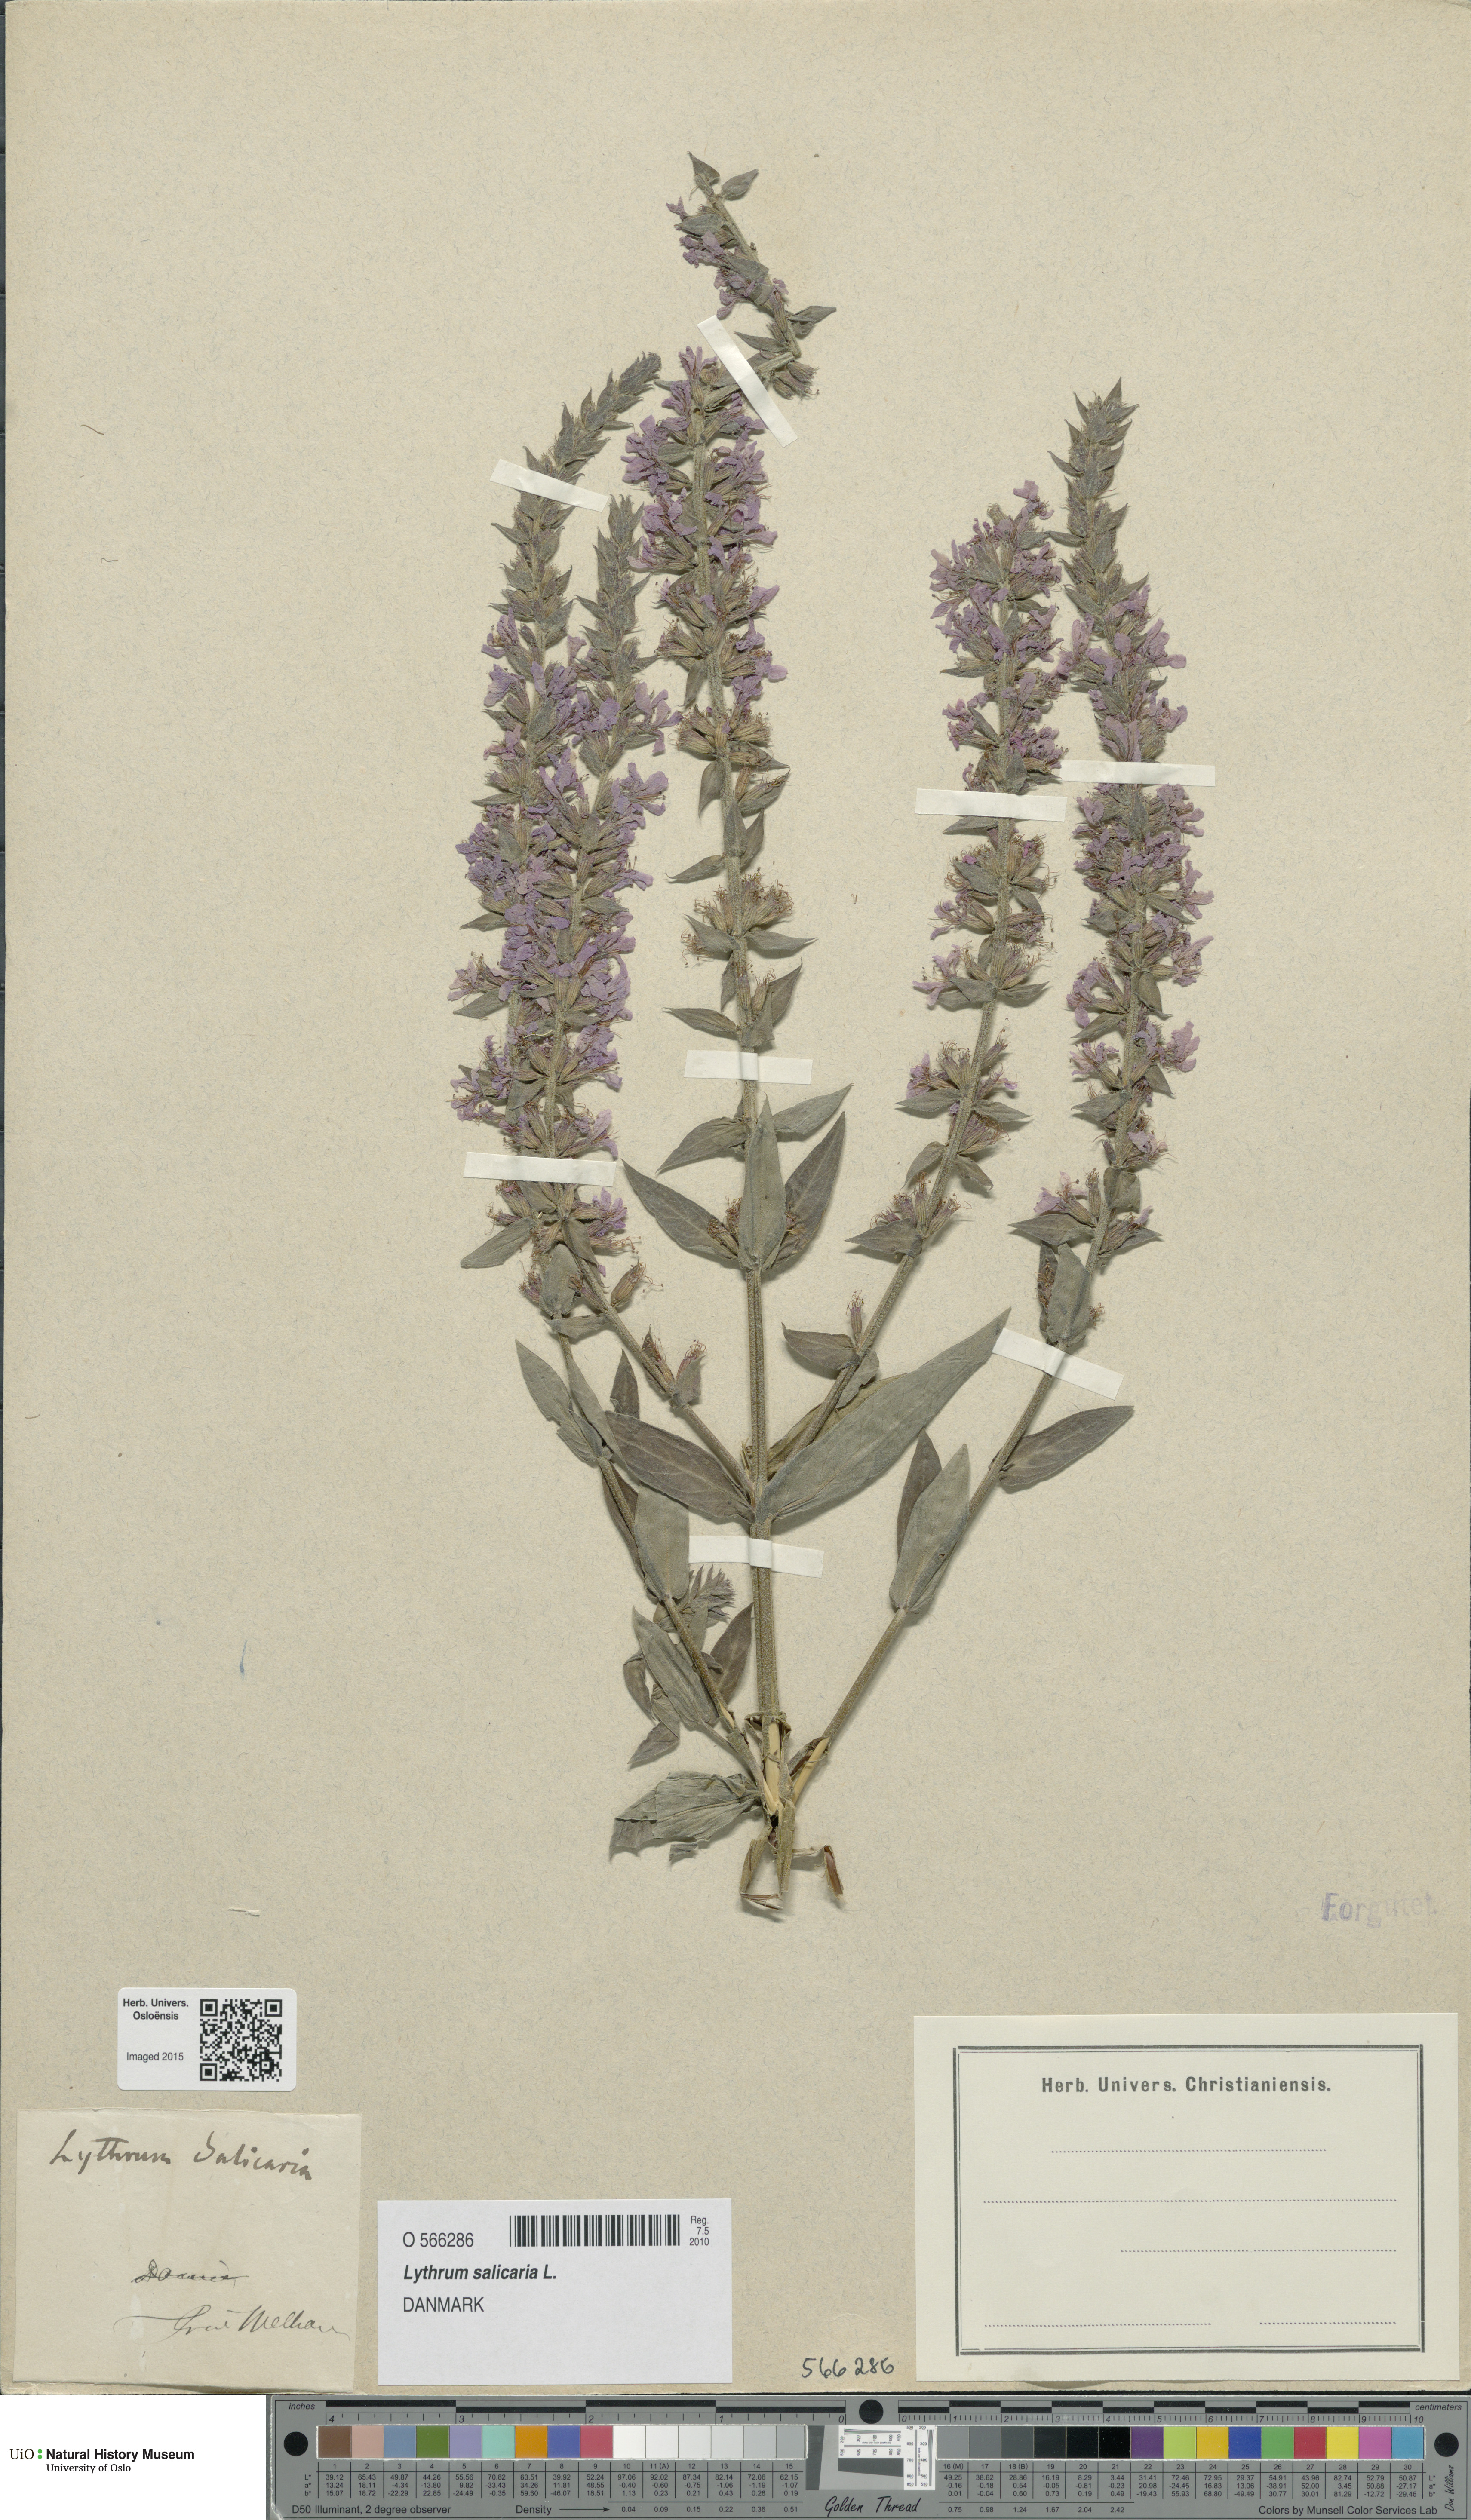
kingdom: Plantae
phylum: Tracheophyta
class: Magnoliopsida
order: Myrtales
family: Lythraceae
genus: Lythrum
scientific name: Lythrum salicaria
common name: Purple loosestrife
